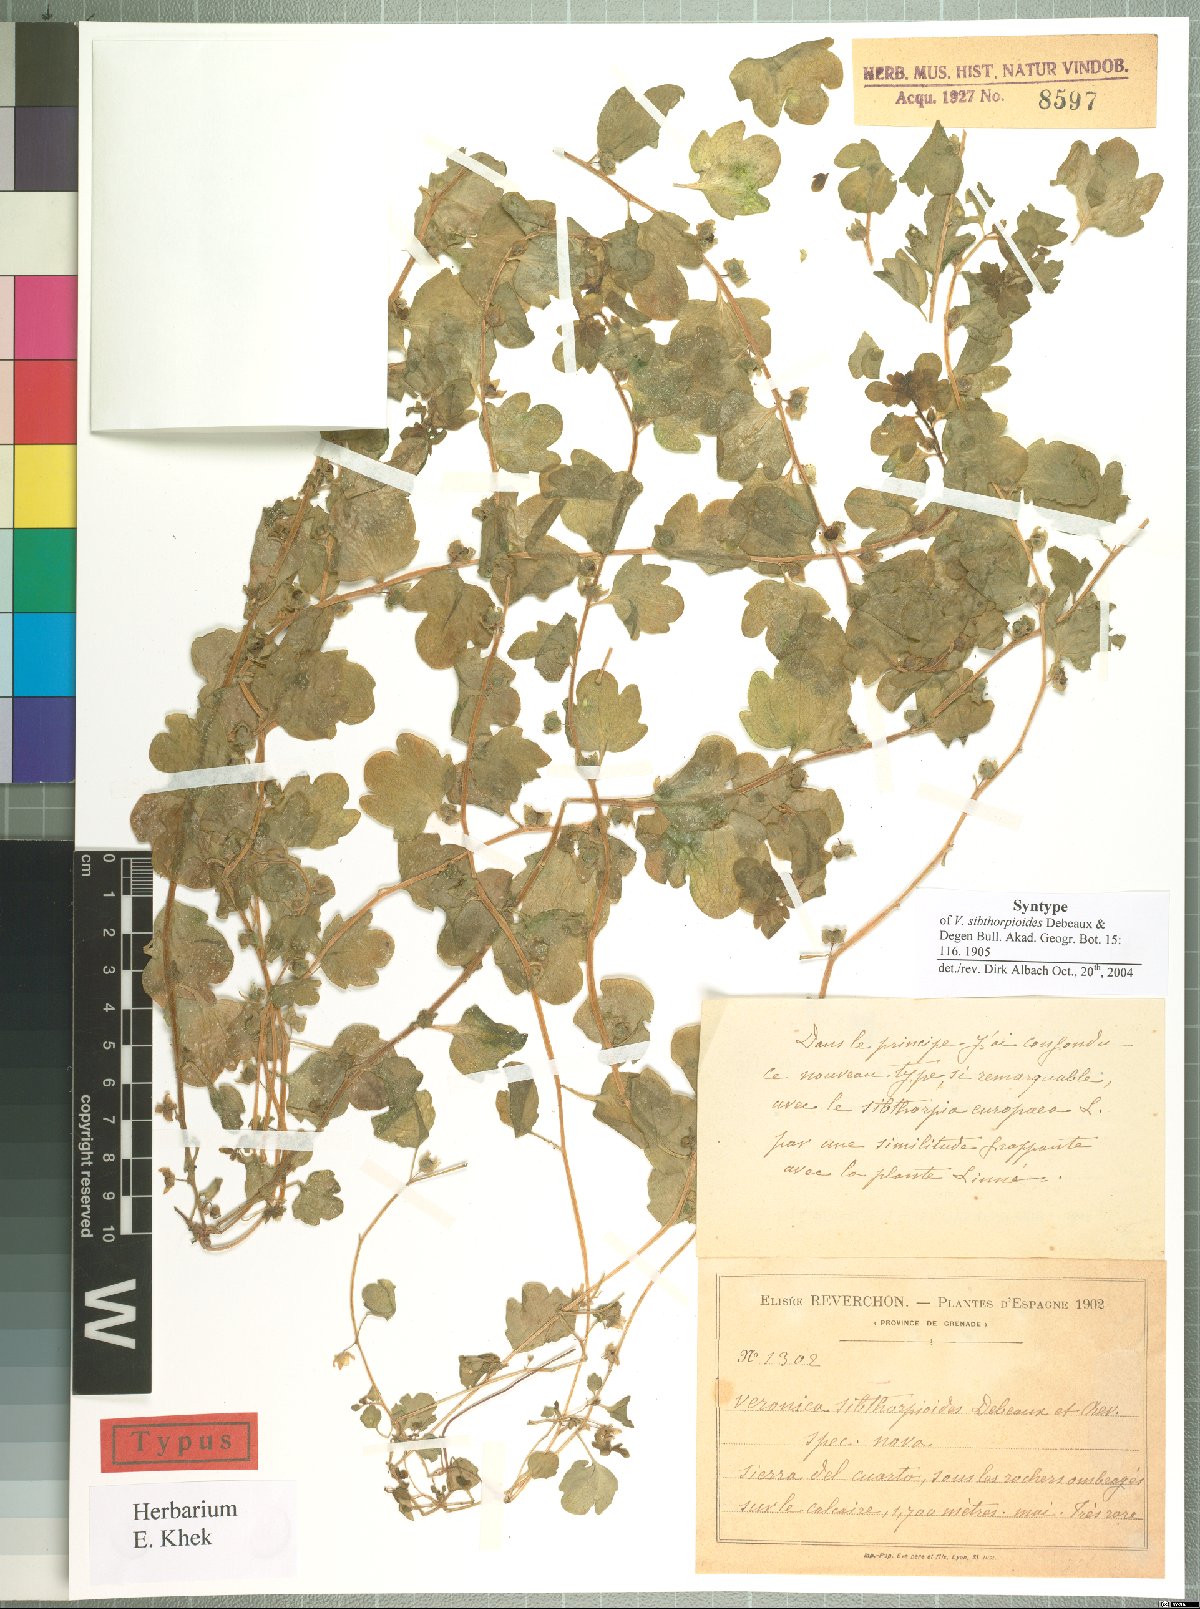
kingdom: Plantae
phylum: Tracheophyta
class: Magnoliopsida
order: Lamiales
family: Plantaginaceae
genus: Veronica
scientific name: Veronica sibthorpioides
